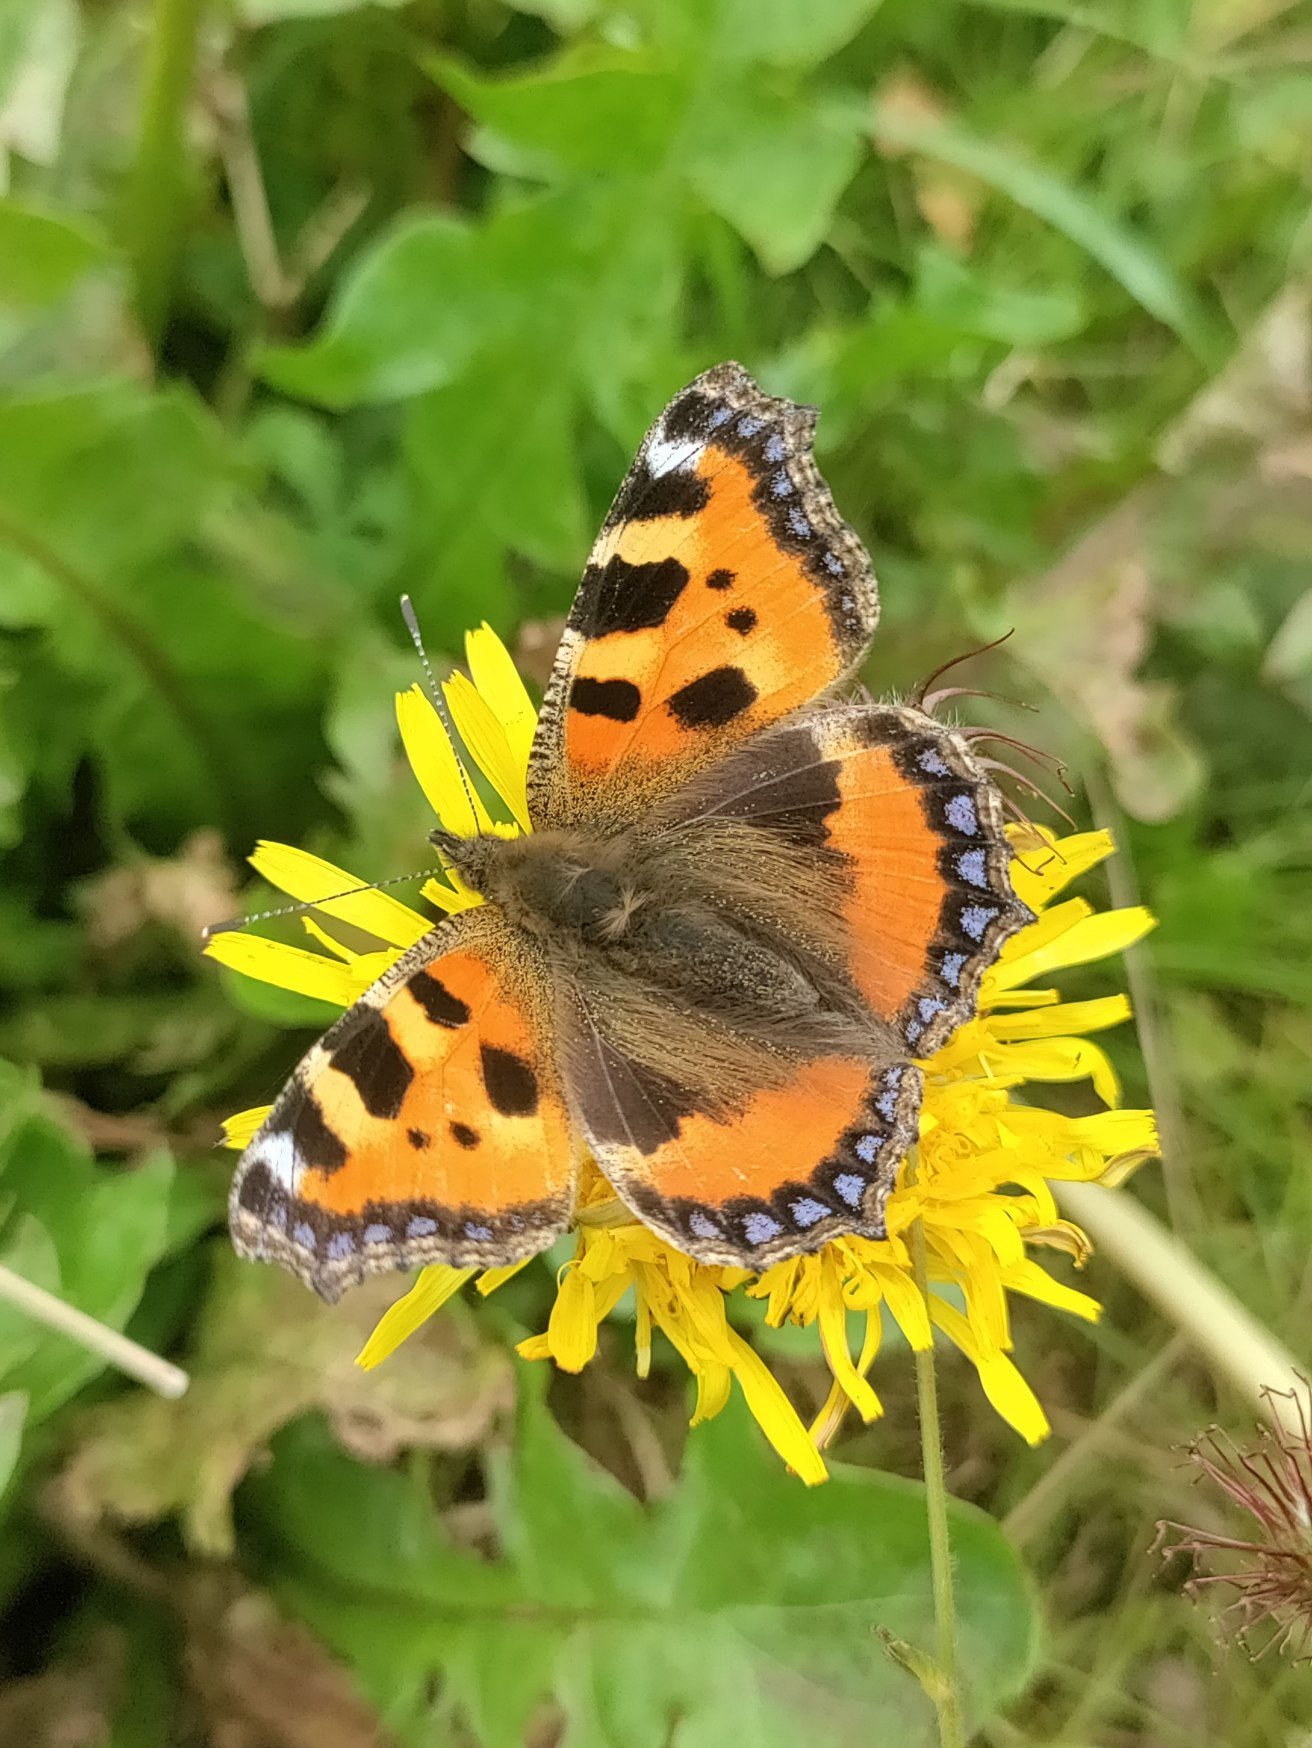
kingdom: Animalia
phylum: Arthropoda
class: Insecta
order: Lepidoptera
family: Nymphalidae
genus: Aglais
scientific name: Aglais urticae
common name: Nældens takvinge
